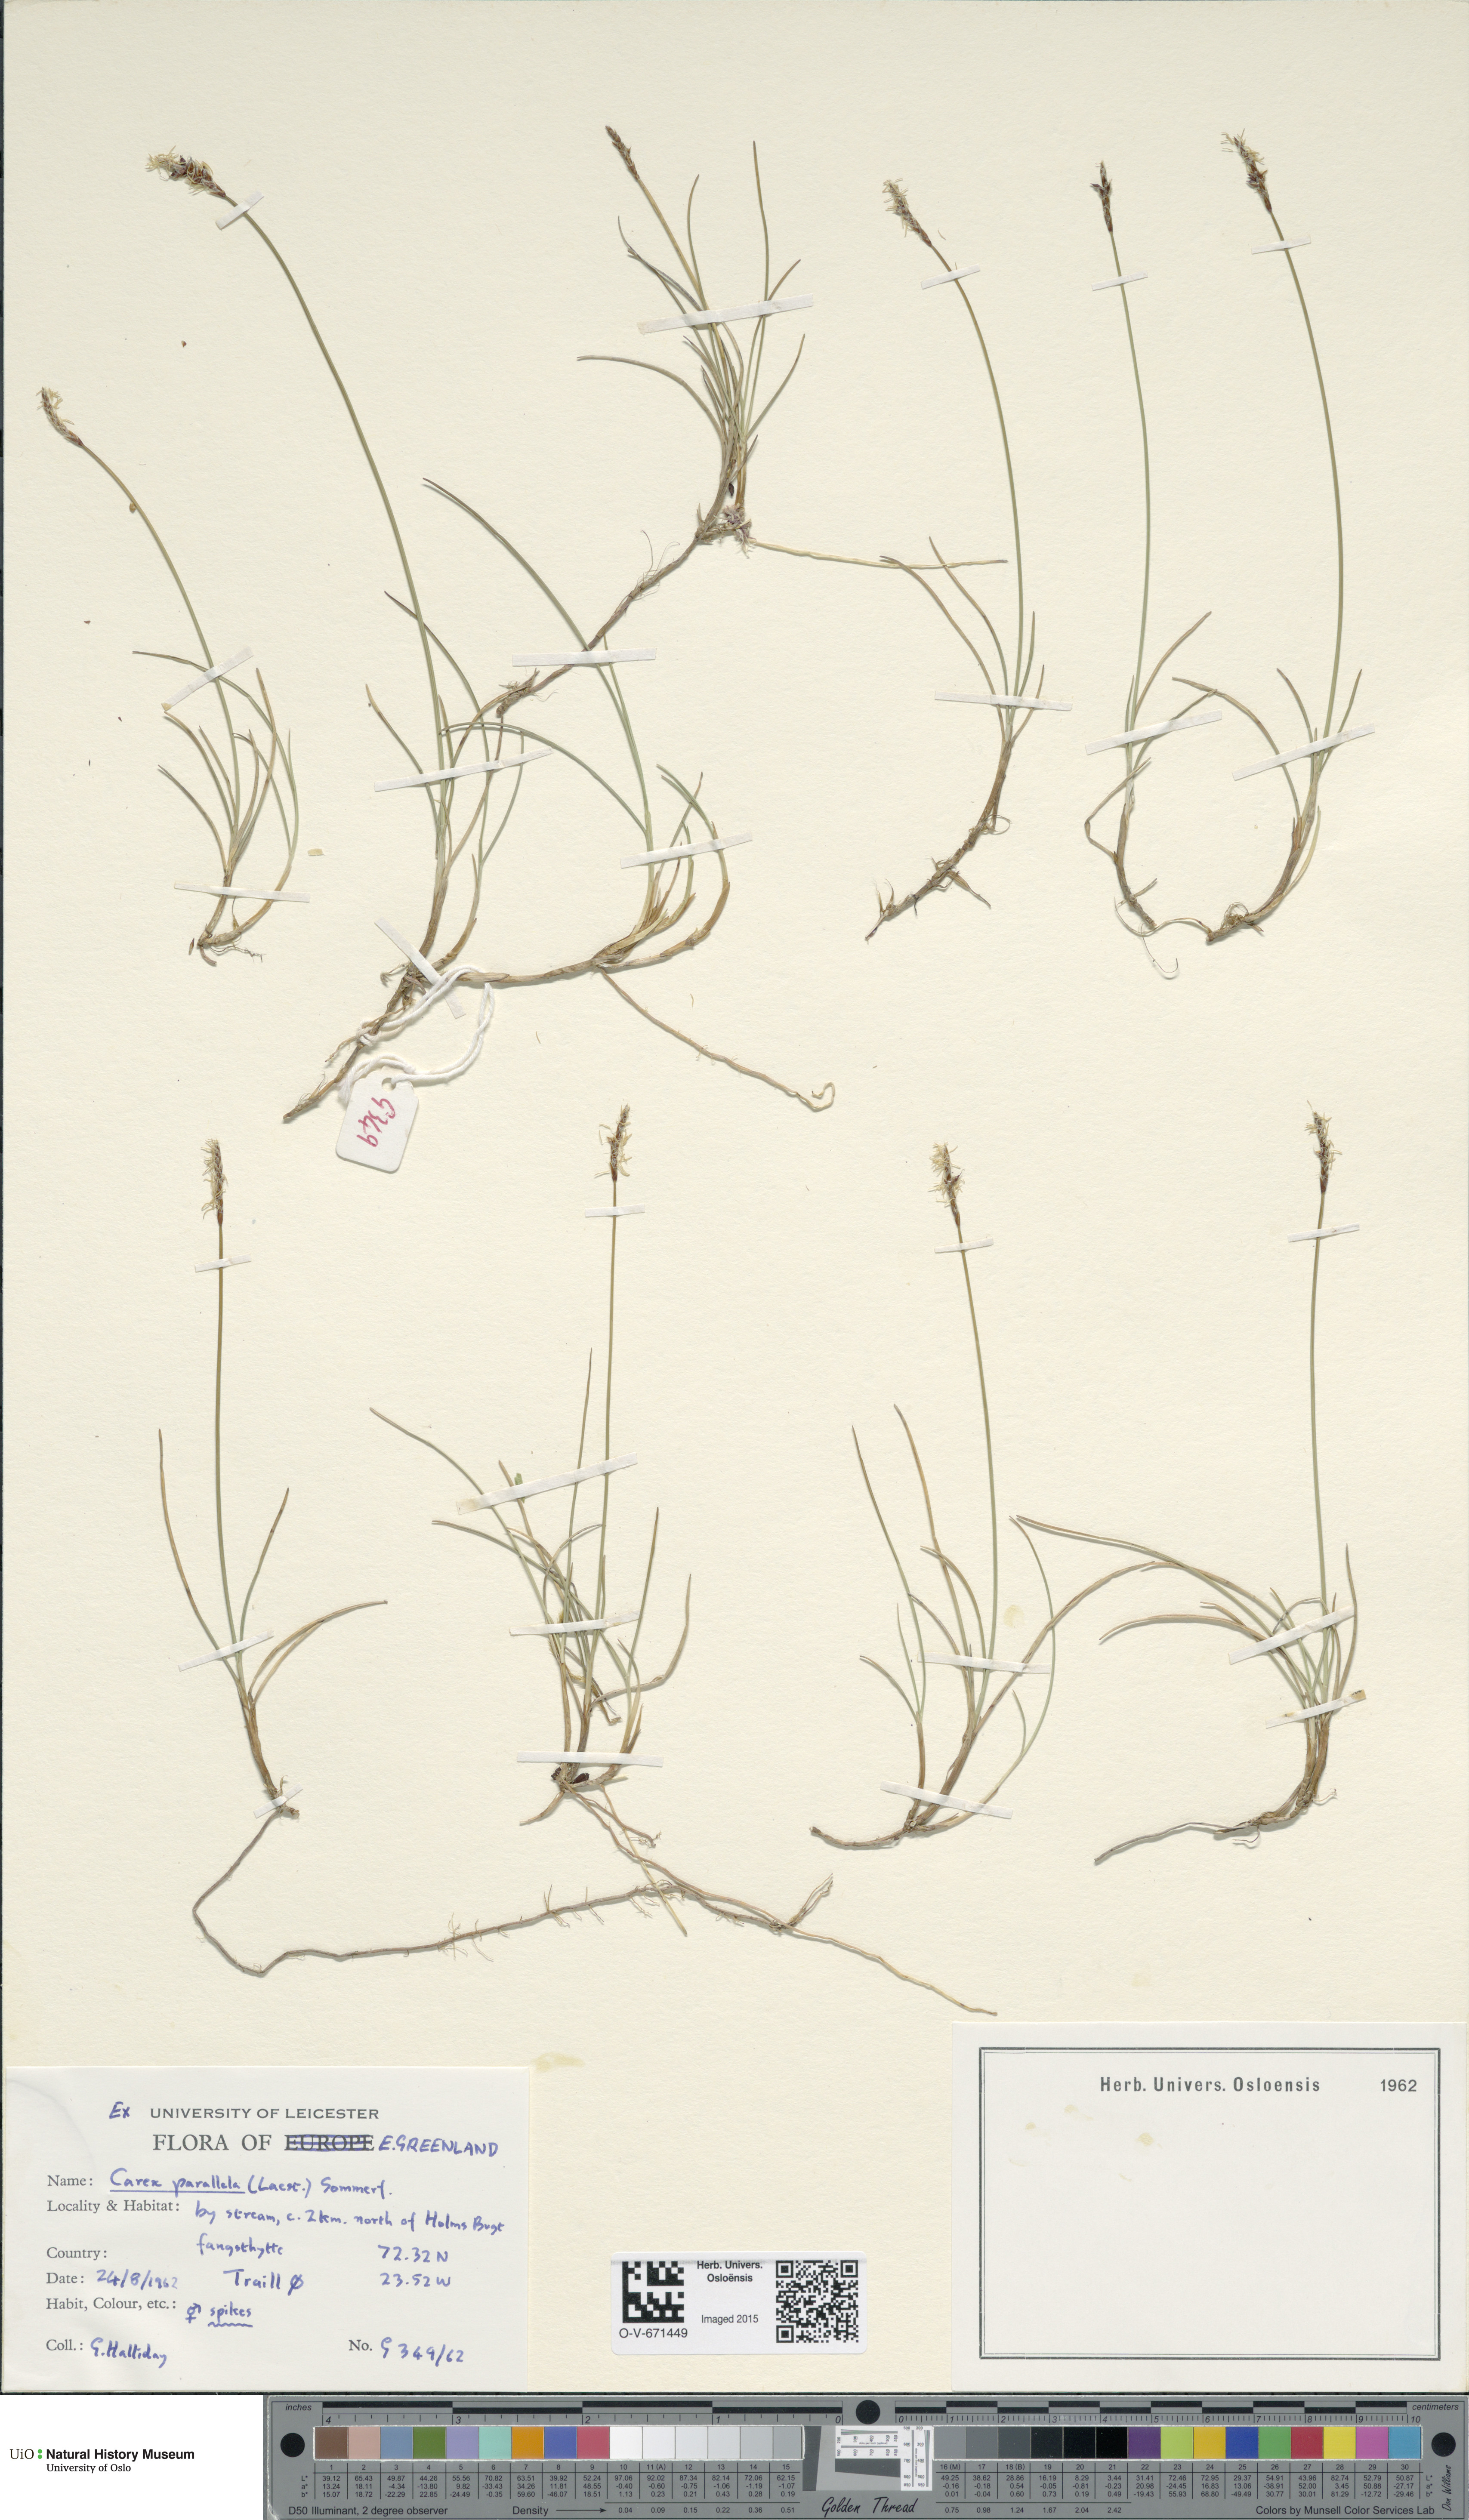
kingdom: Plantae
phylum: Tracheophyta
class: Liliopsida
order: Poales
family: Cyperaceae
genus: Carex
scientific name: Carex parallela
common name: Parallel sedge
